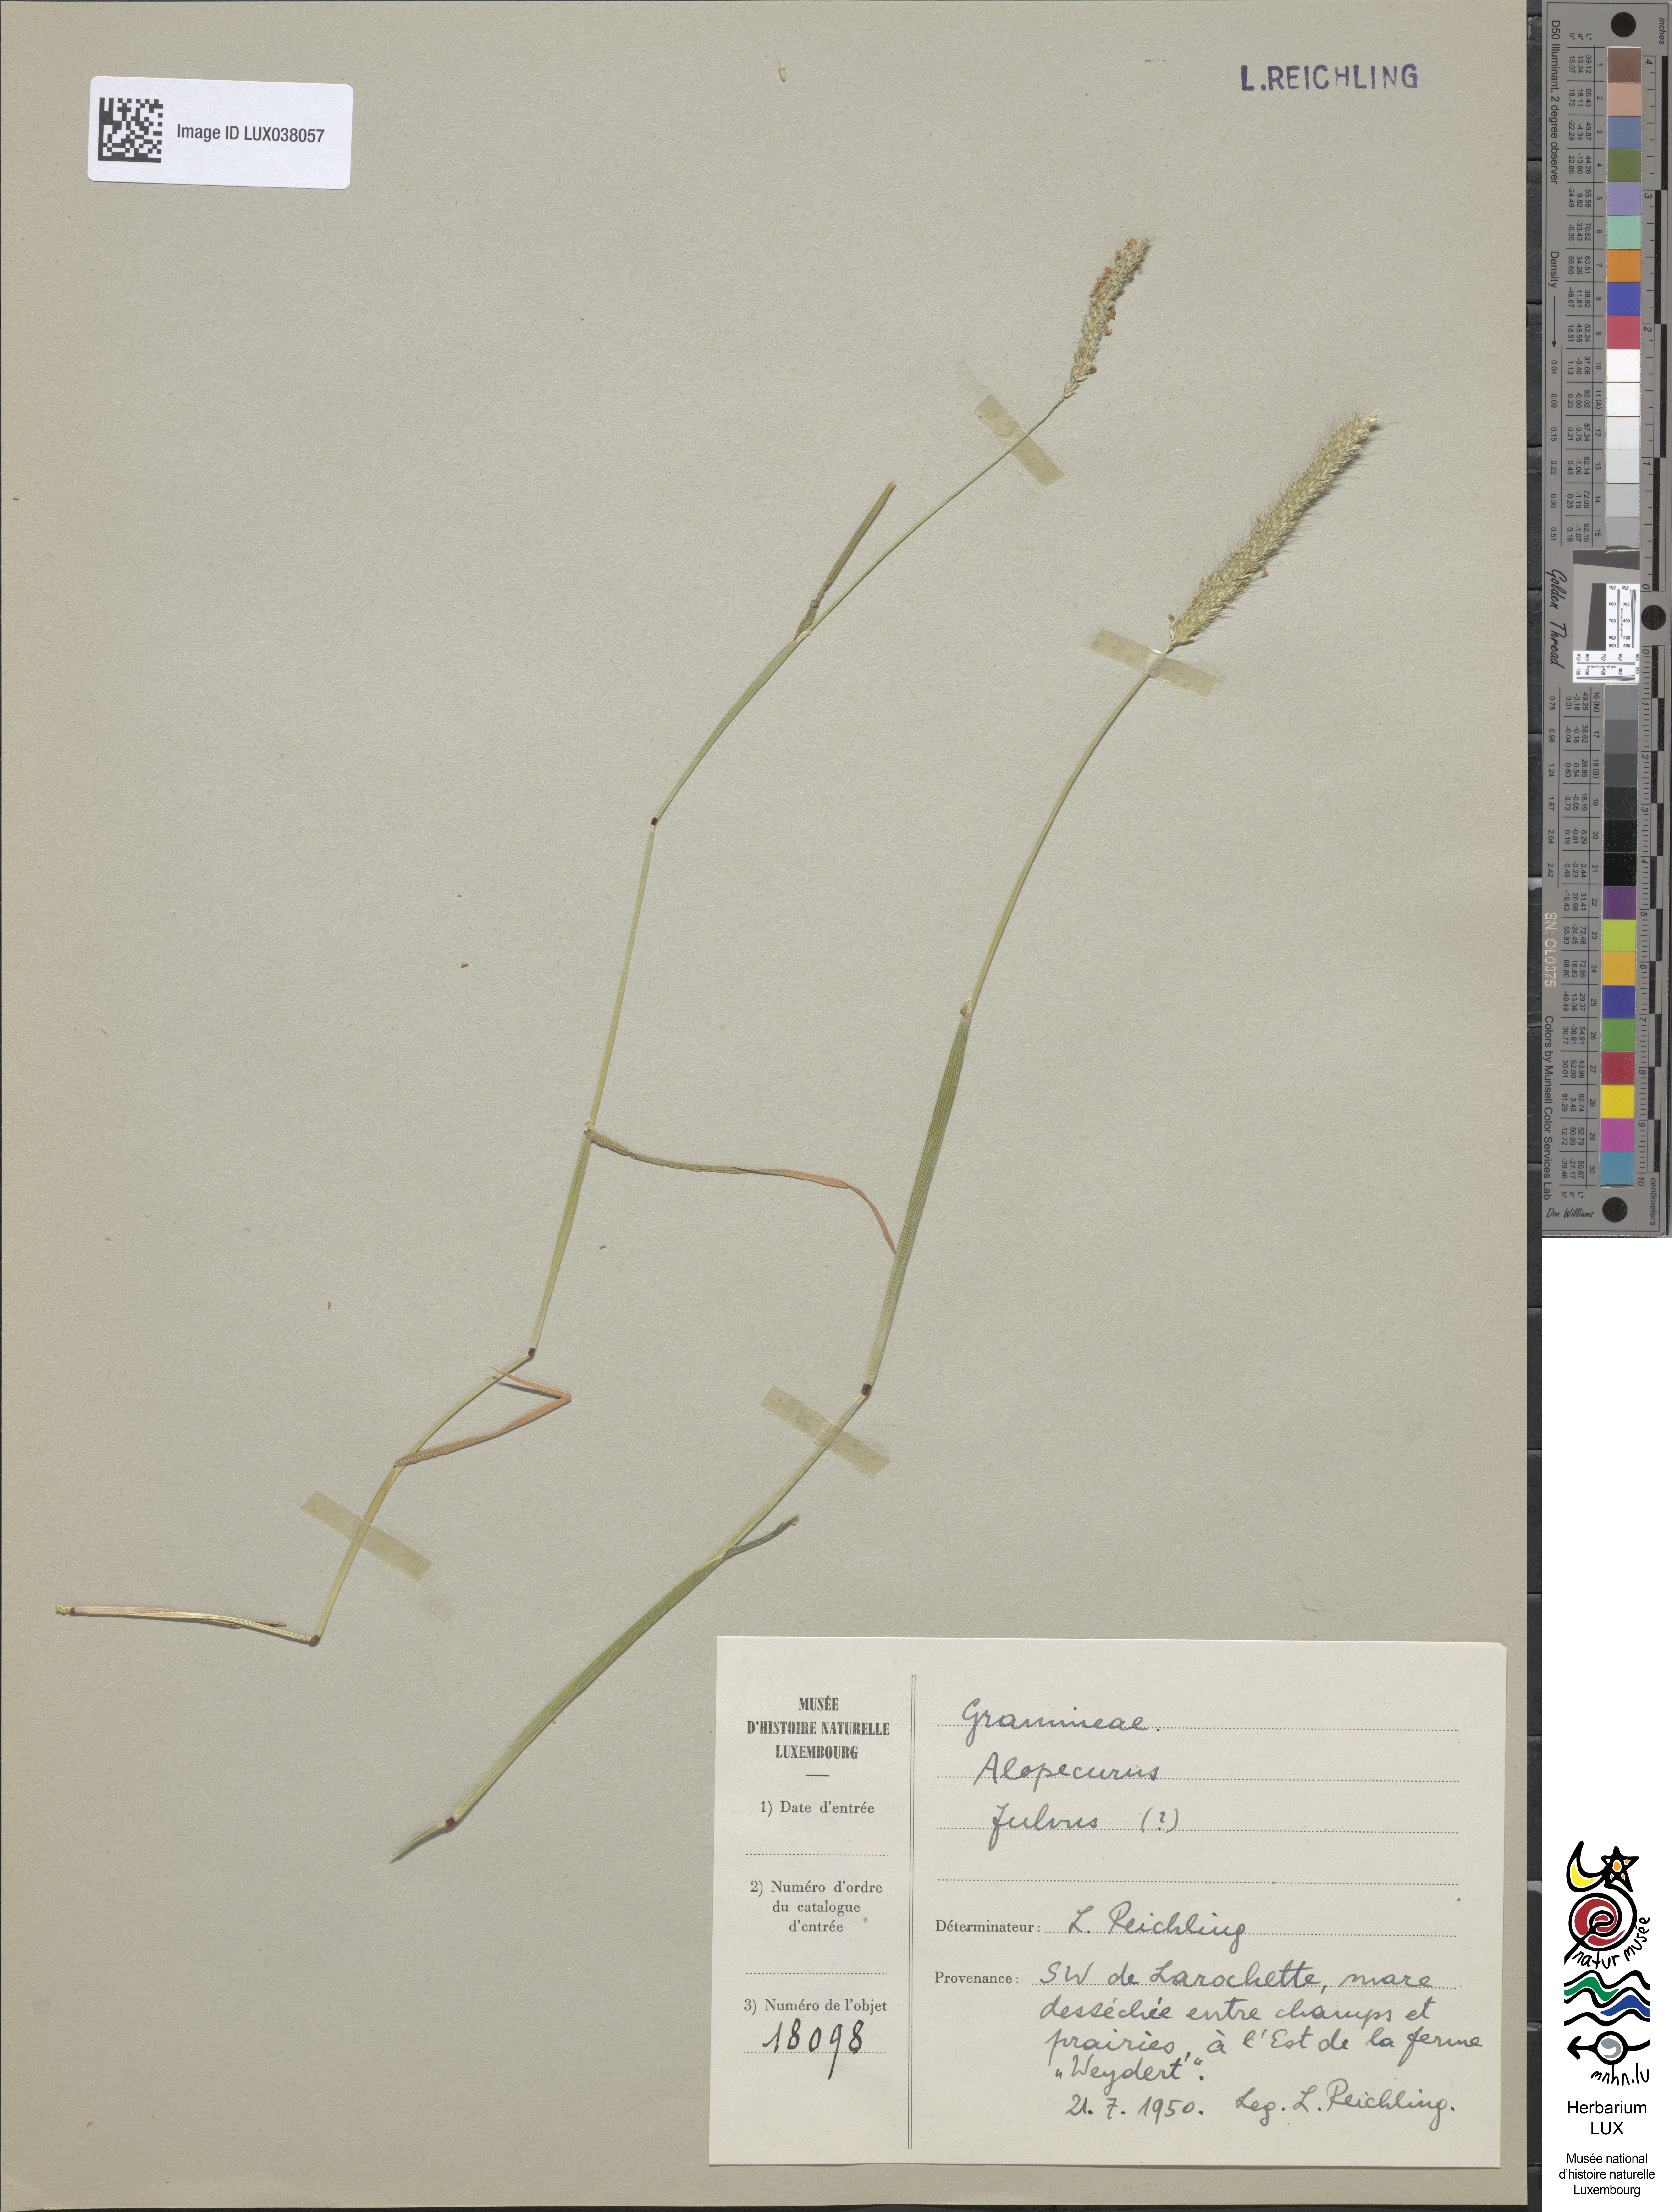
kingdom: Plantae
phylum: Tracheophyta
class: Liliopsida
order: Poales
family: Poaceae
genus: Alopecurus
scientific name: Alopecurus aequalis
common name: Orange foxtail
